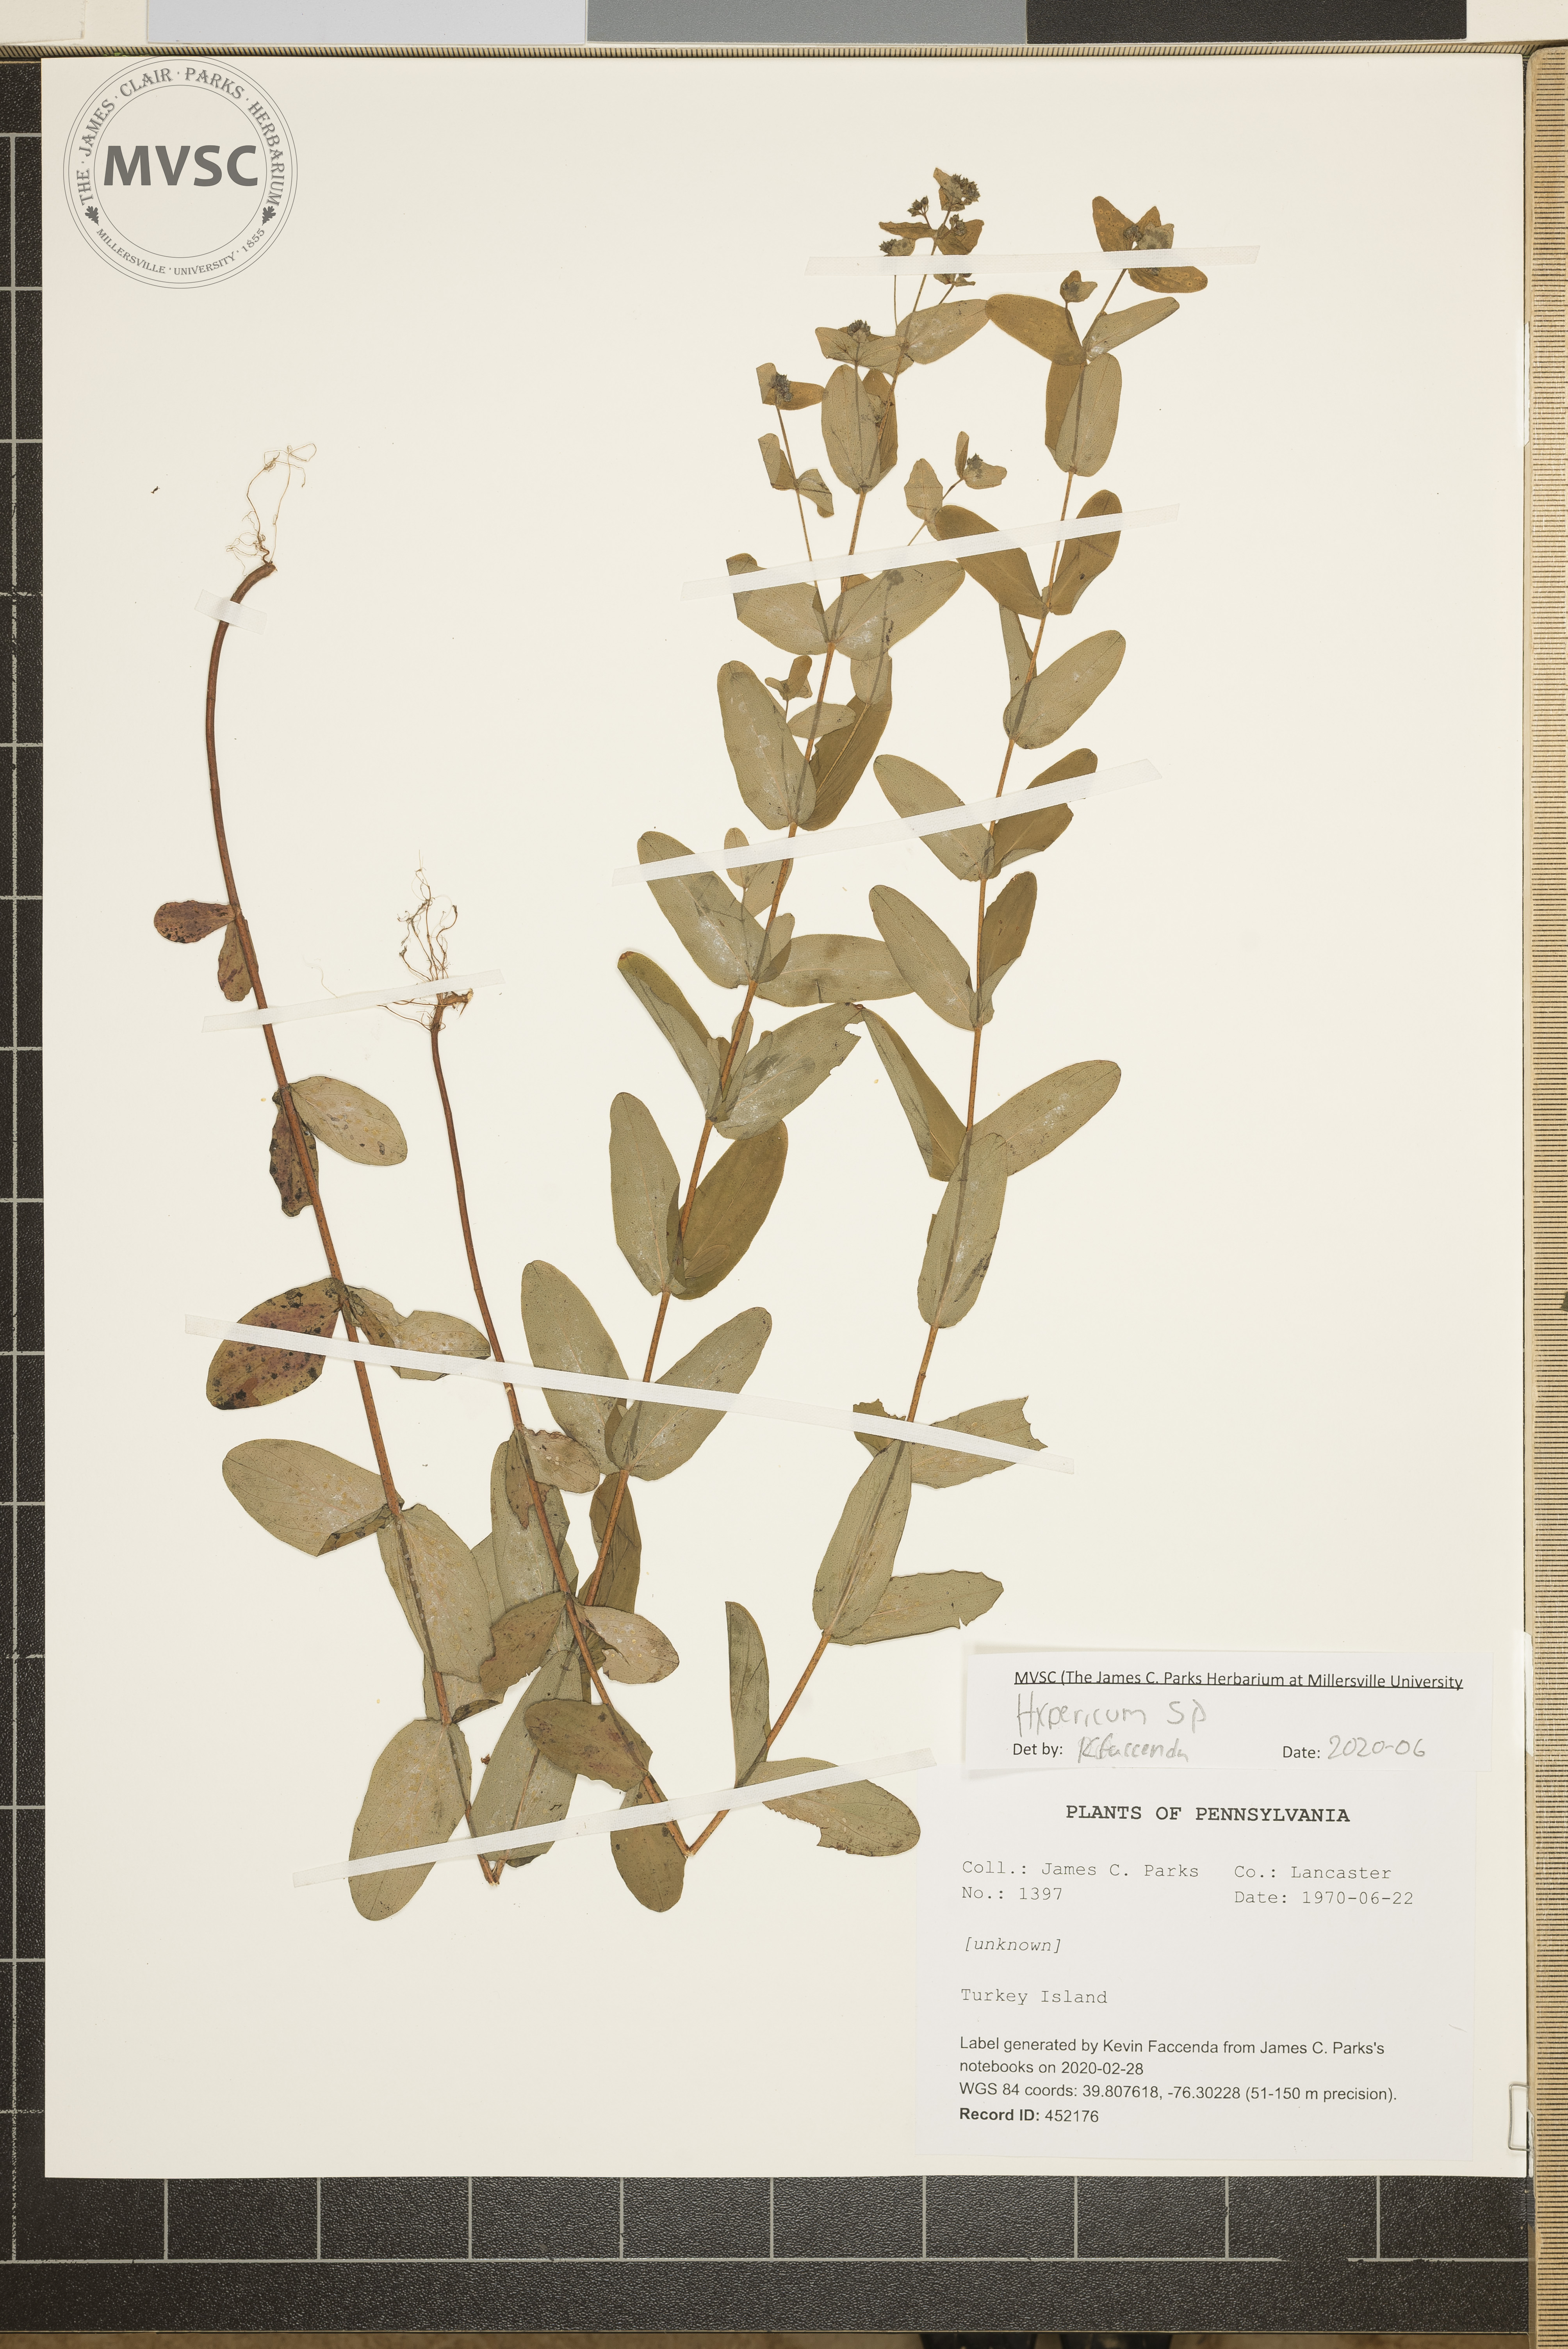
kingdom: Plantae
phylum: Tracheophyta
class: Magnoliopsida
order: Malpighiales
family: Hypericaceae
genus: Hypericum
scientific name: Hypericum
